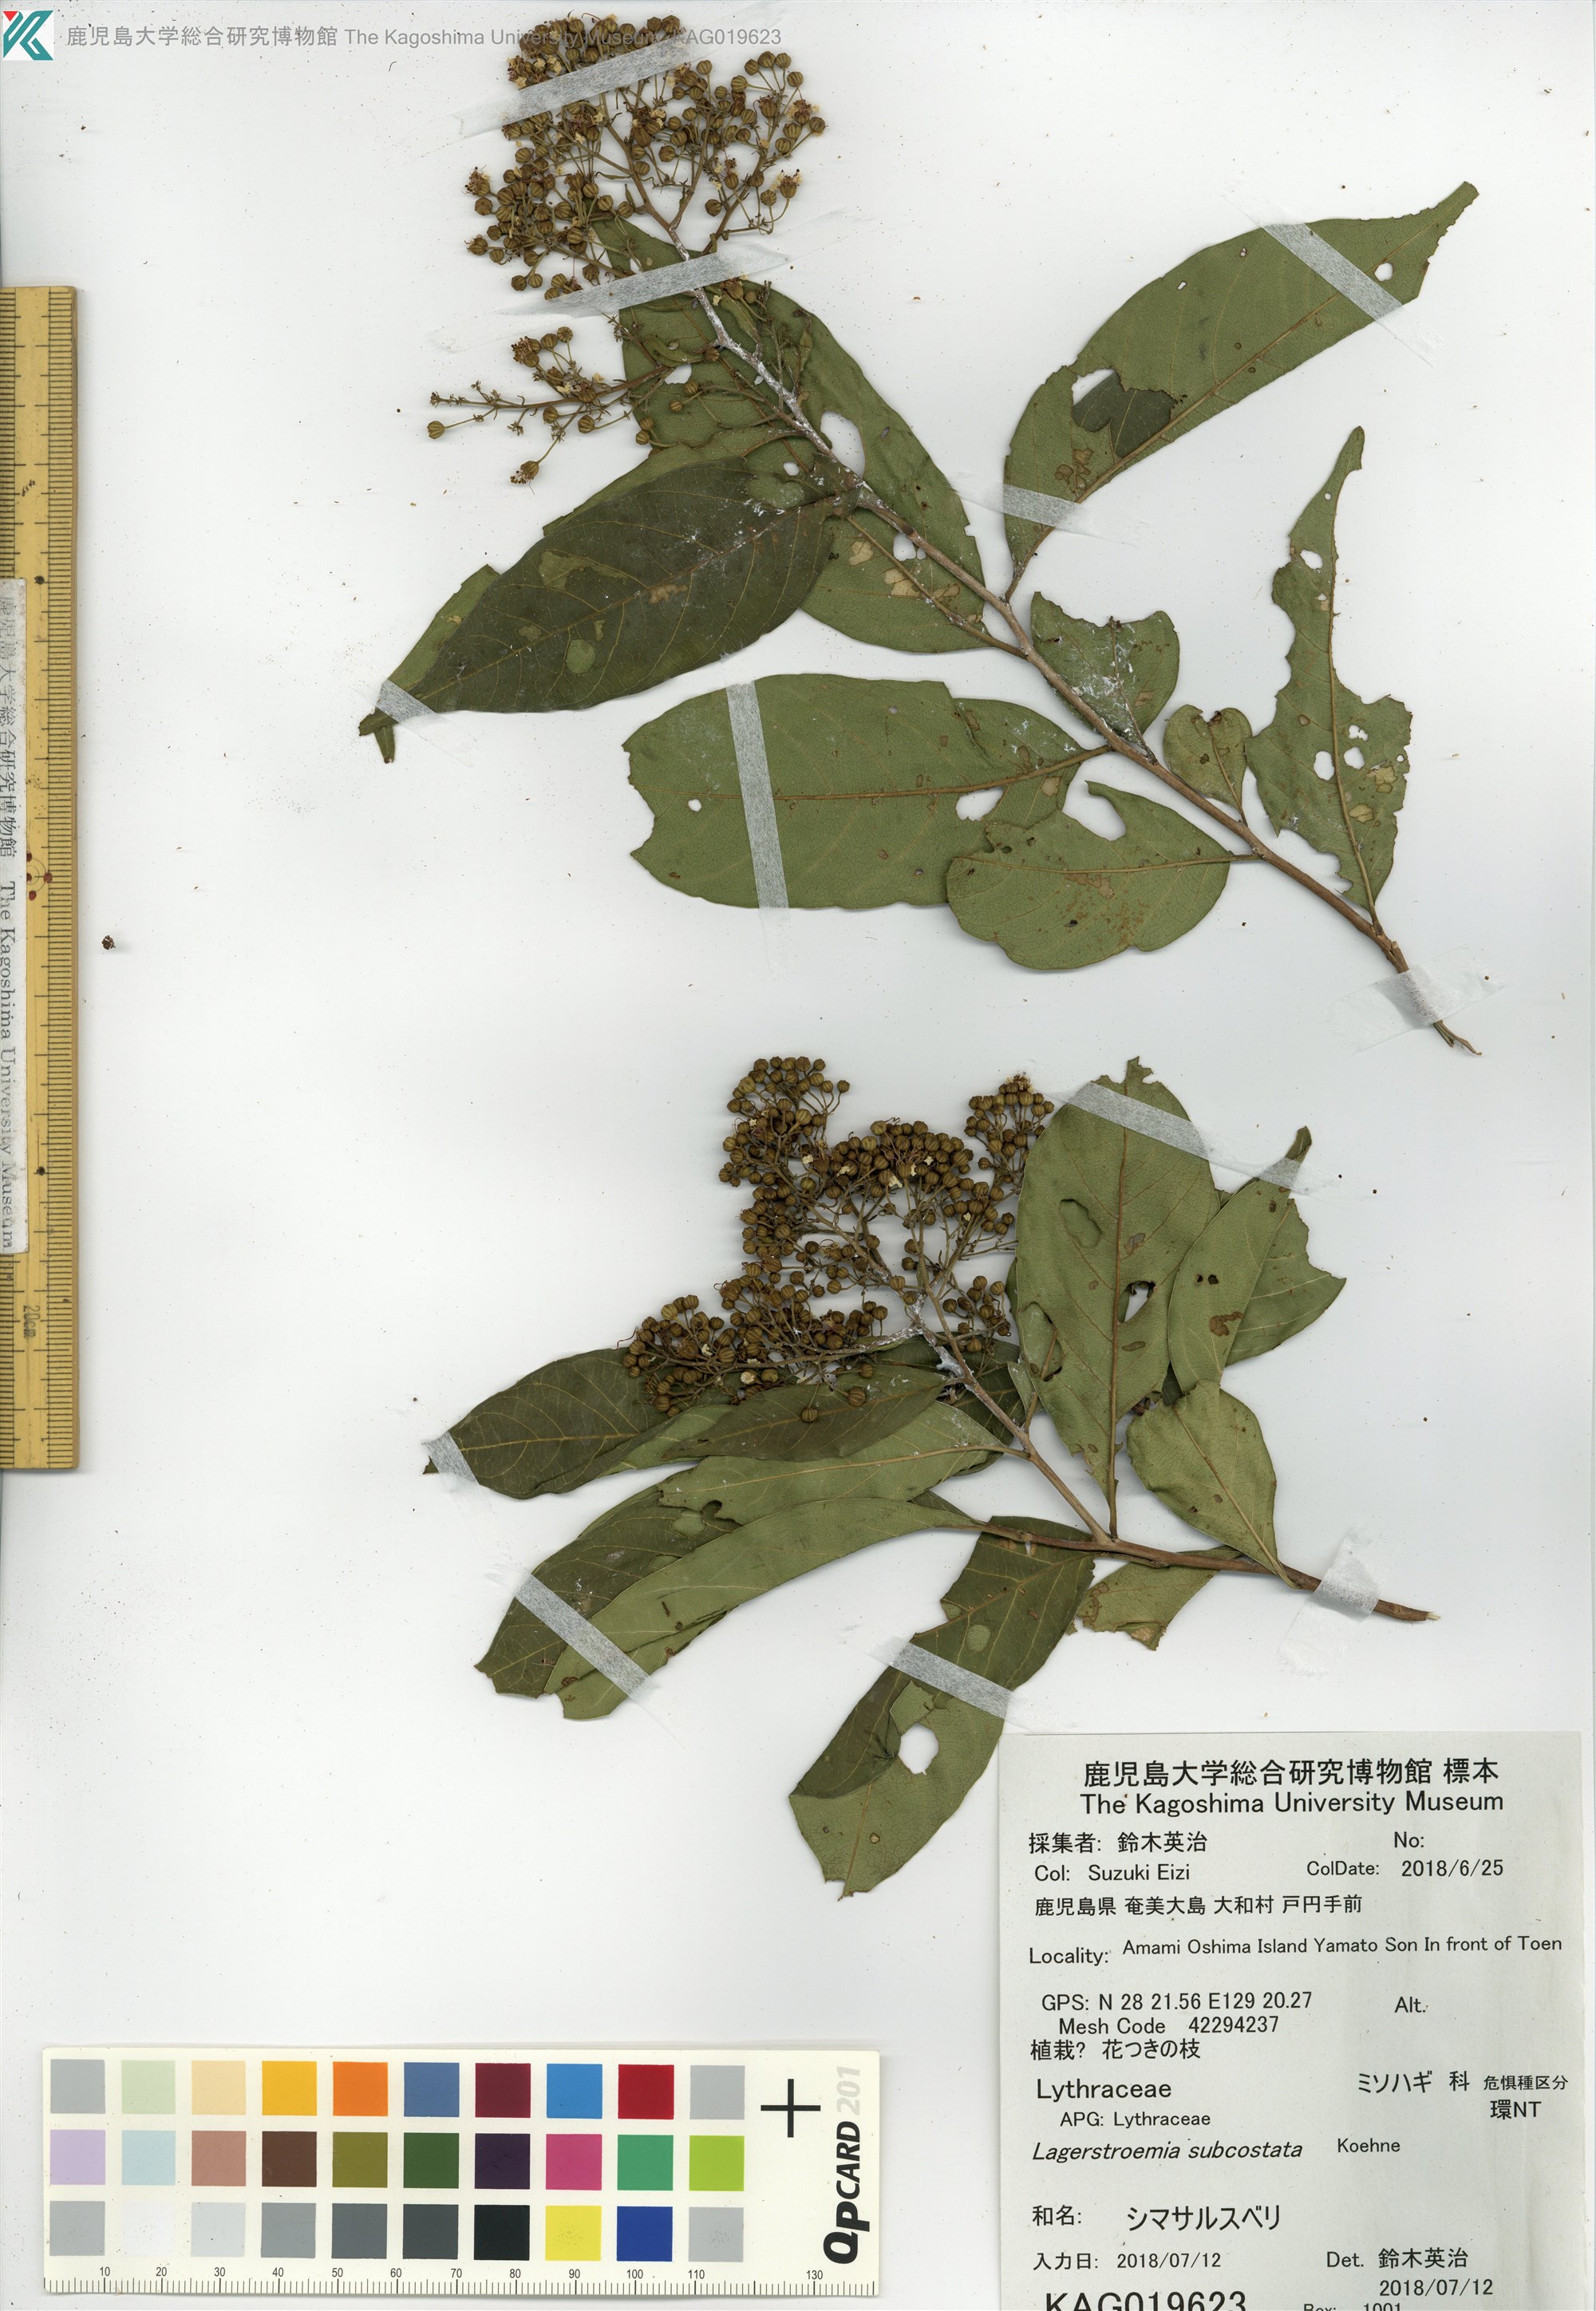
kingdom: Plantae
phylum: Tracheophyta
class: Magnoliopsida
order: Myrtales
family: Lythraceae
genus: Lagerstroemia
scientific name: Lagerstroemia subcostata
